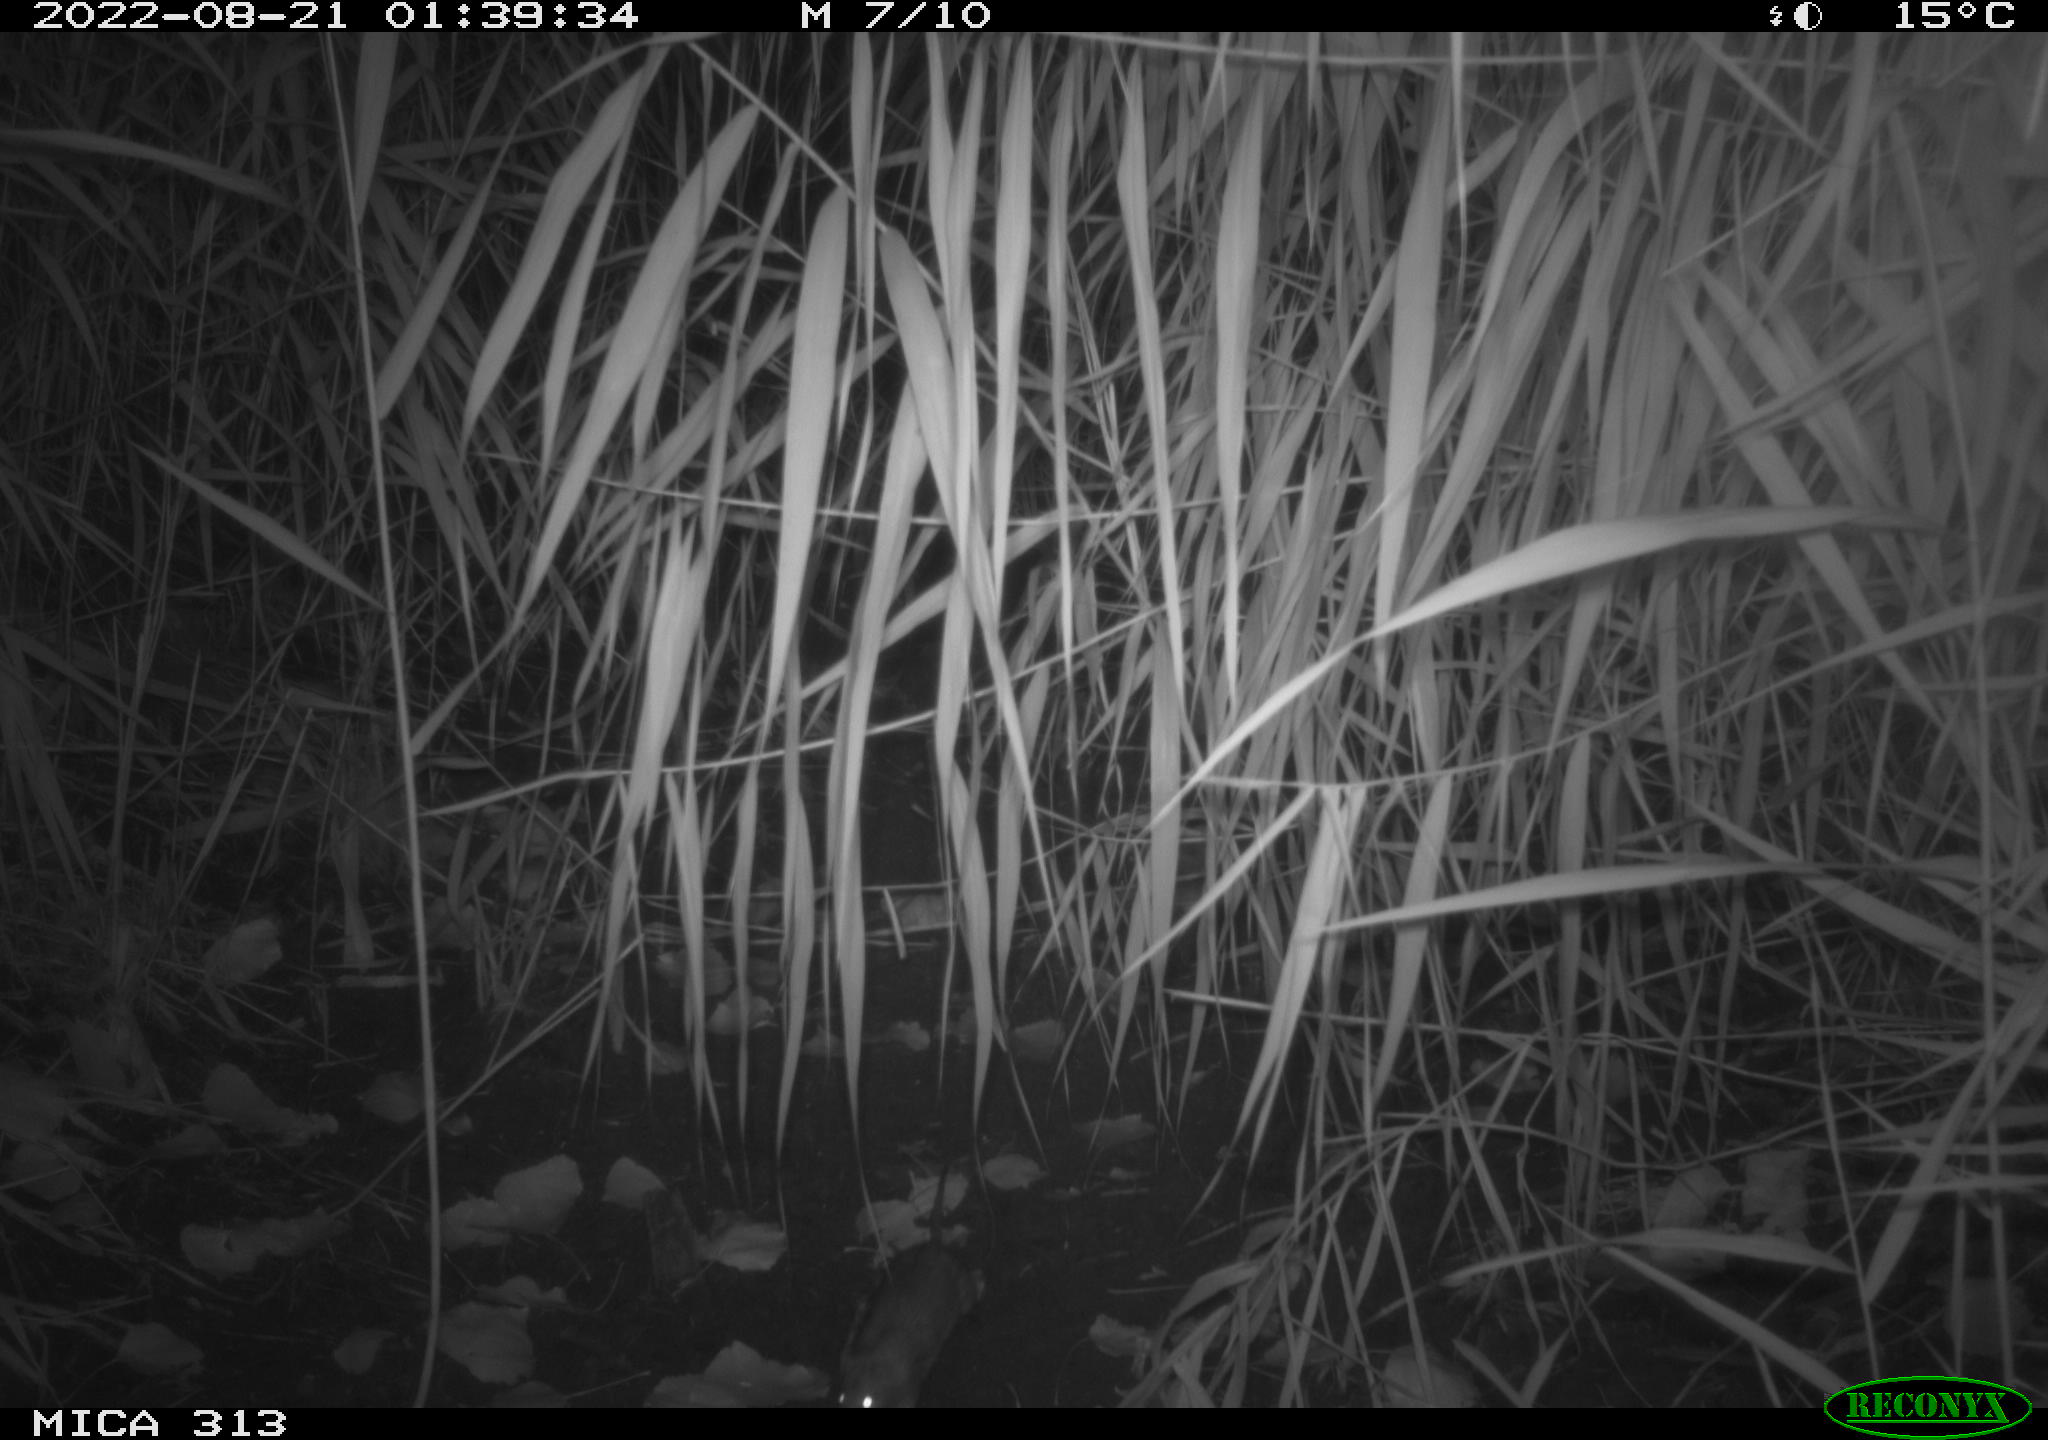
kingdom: Animalia
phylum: Chordata
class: Mammalia
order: Rodentia
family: Muridae
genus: Rattus
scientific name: Rattus norvegicus
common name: Brown rat
